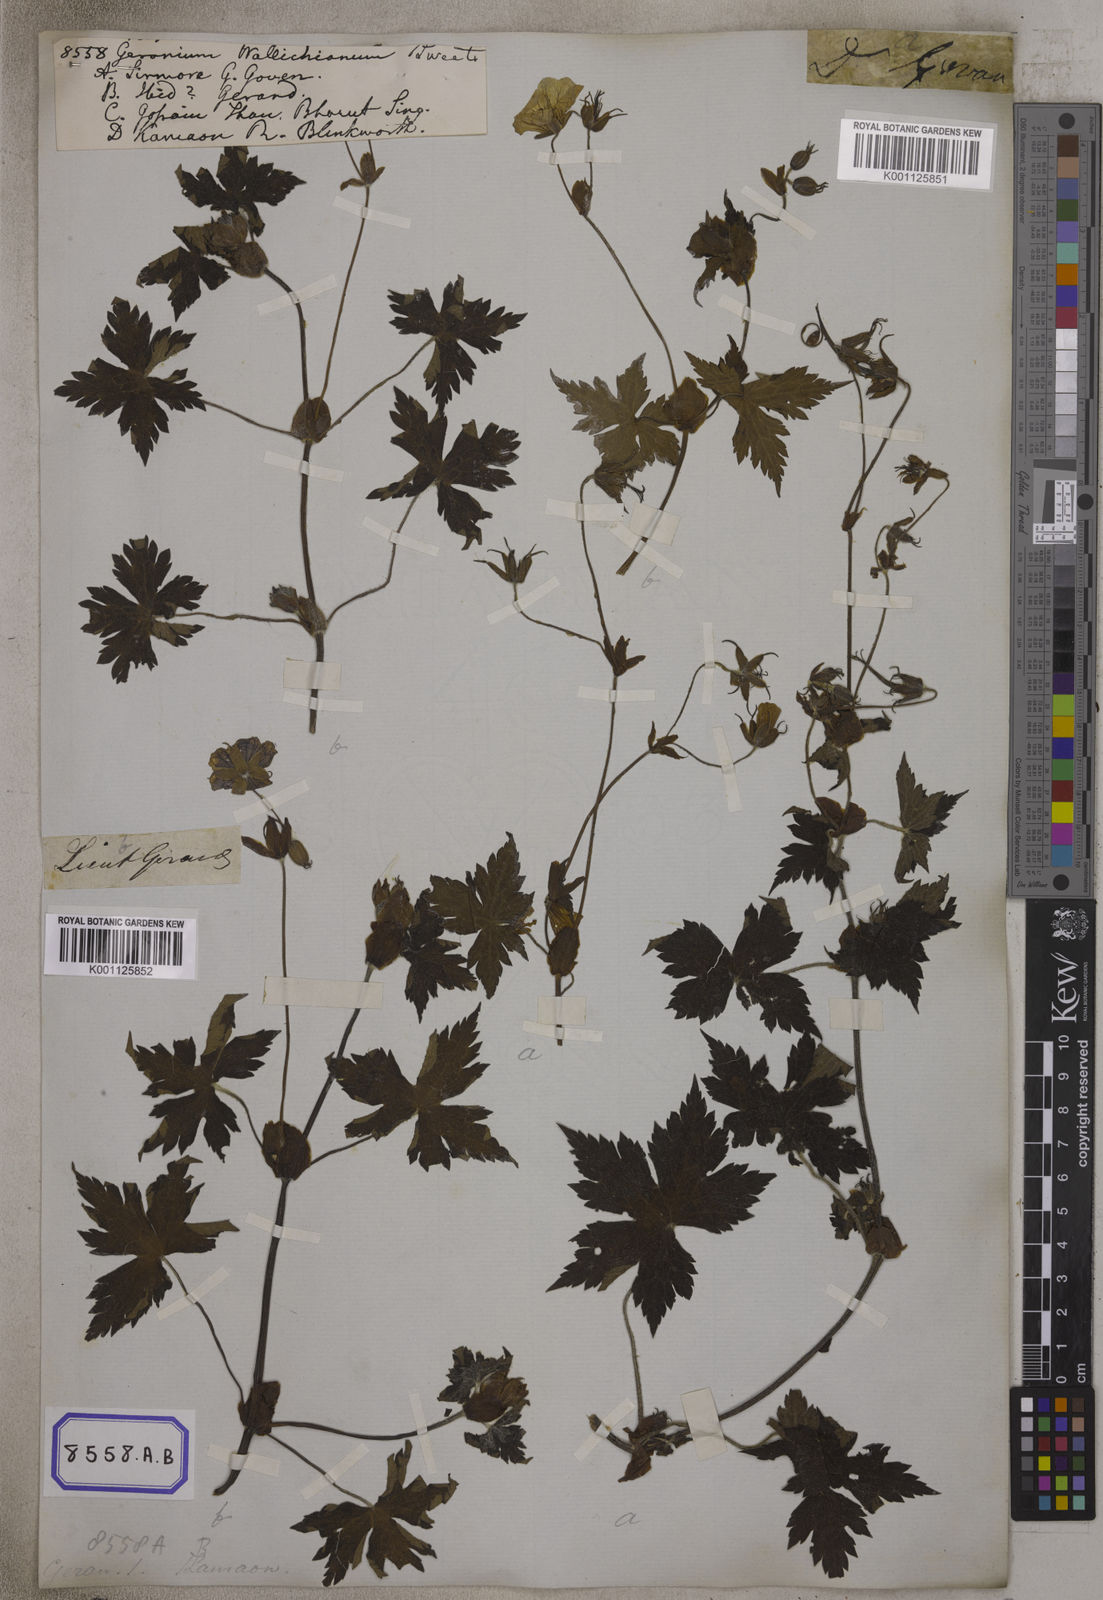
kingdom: Plantae
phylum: Tracheophyta
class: Magnoliopsida
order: Geraniales
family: Geraniaceae
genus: Geranium
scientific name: Geranium
